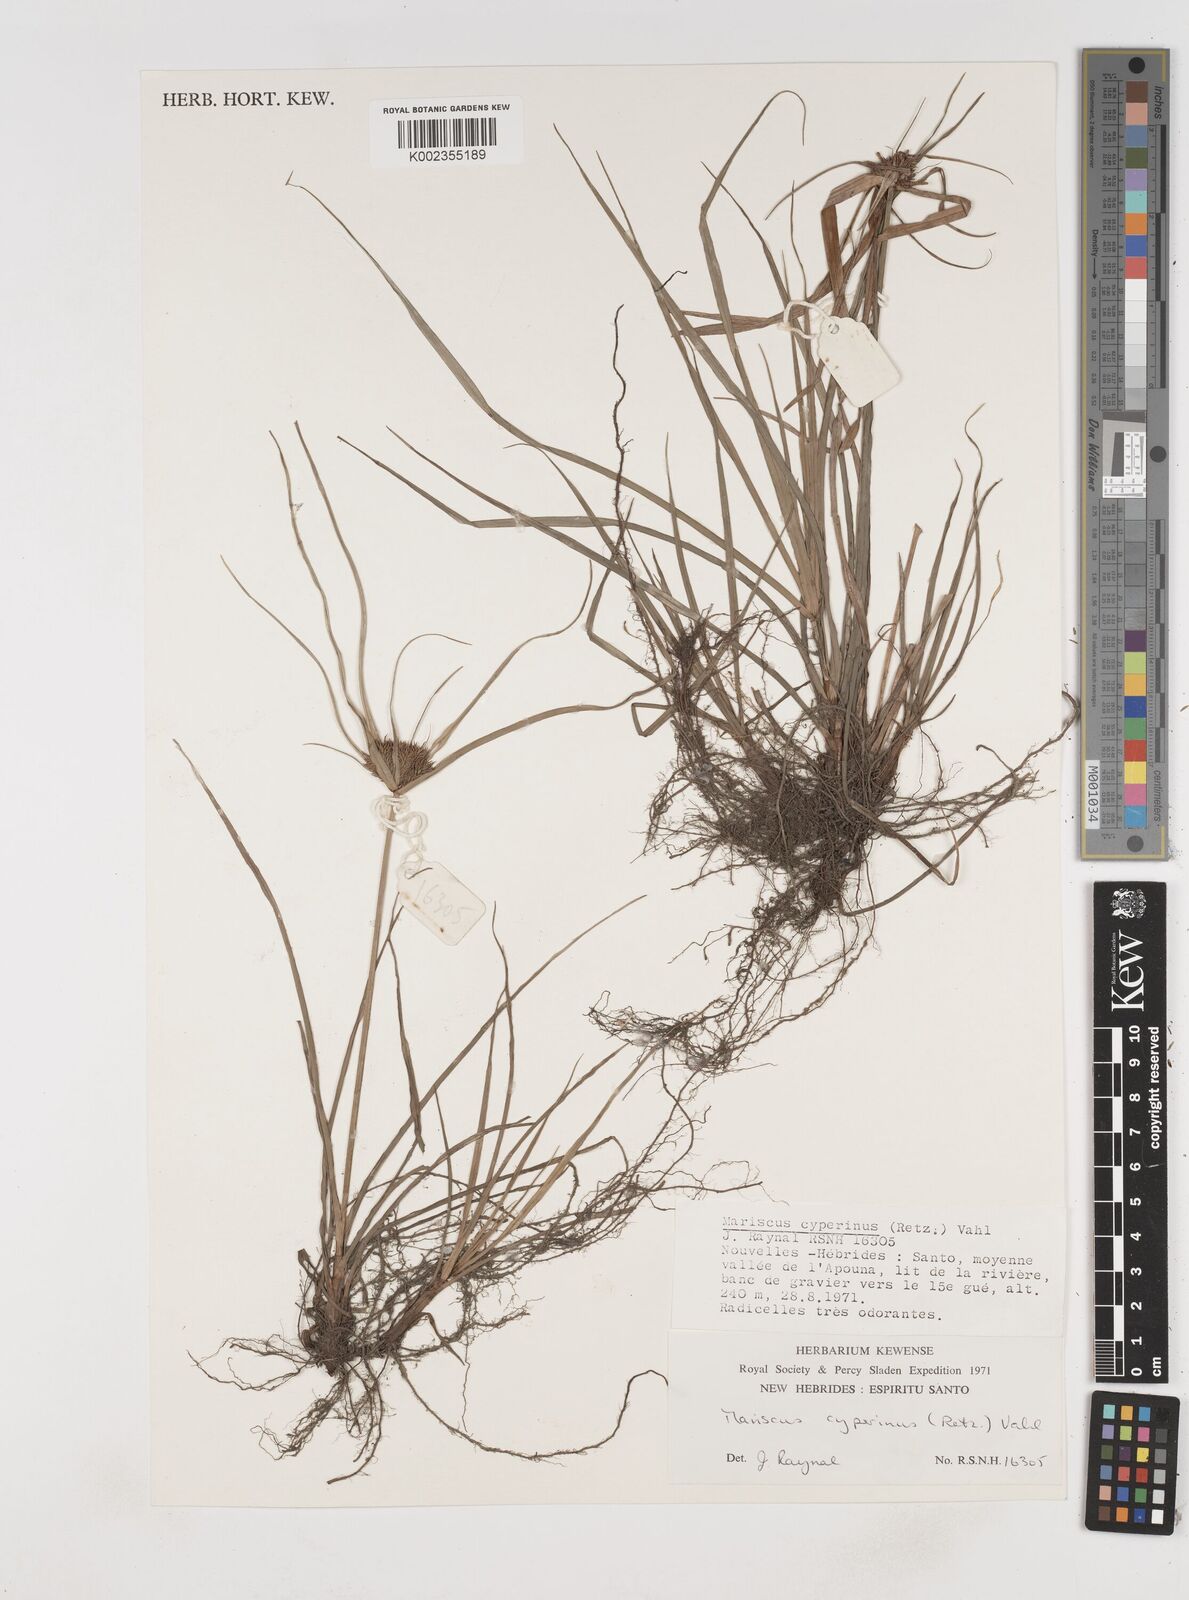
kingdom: Plantae
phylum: Tracheophyta
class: Liliopsida
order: Poales
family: Cyperaceae
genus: Cyperus
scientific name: Cyperus cyperinus
